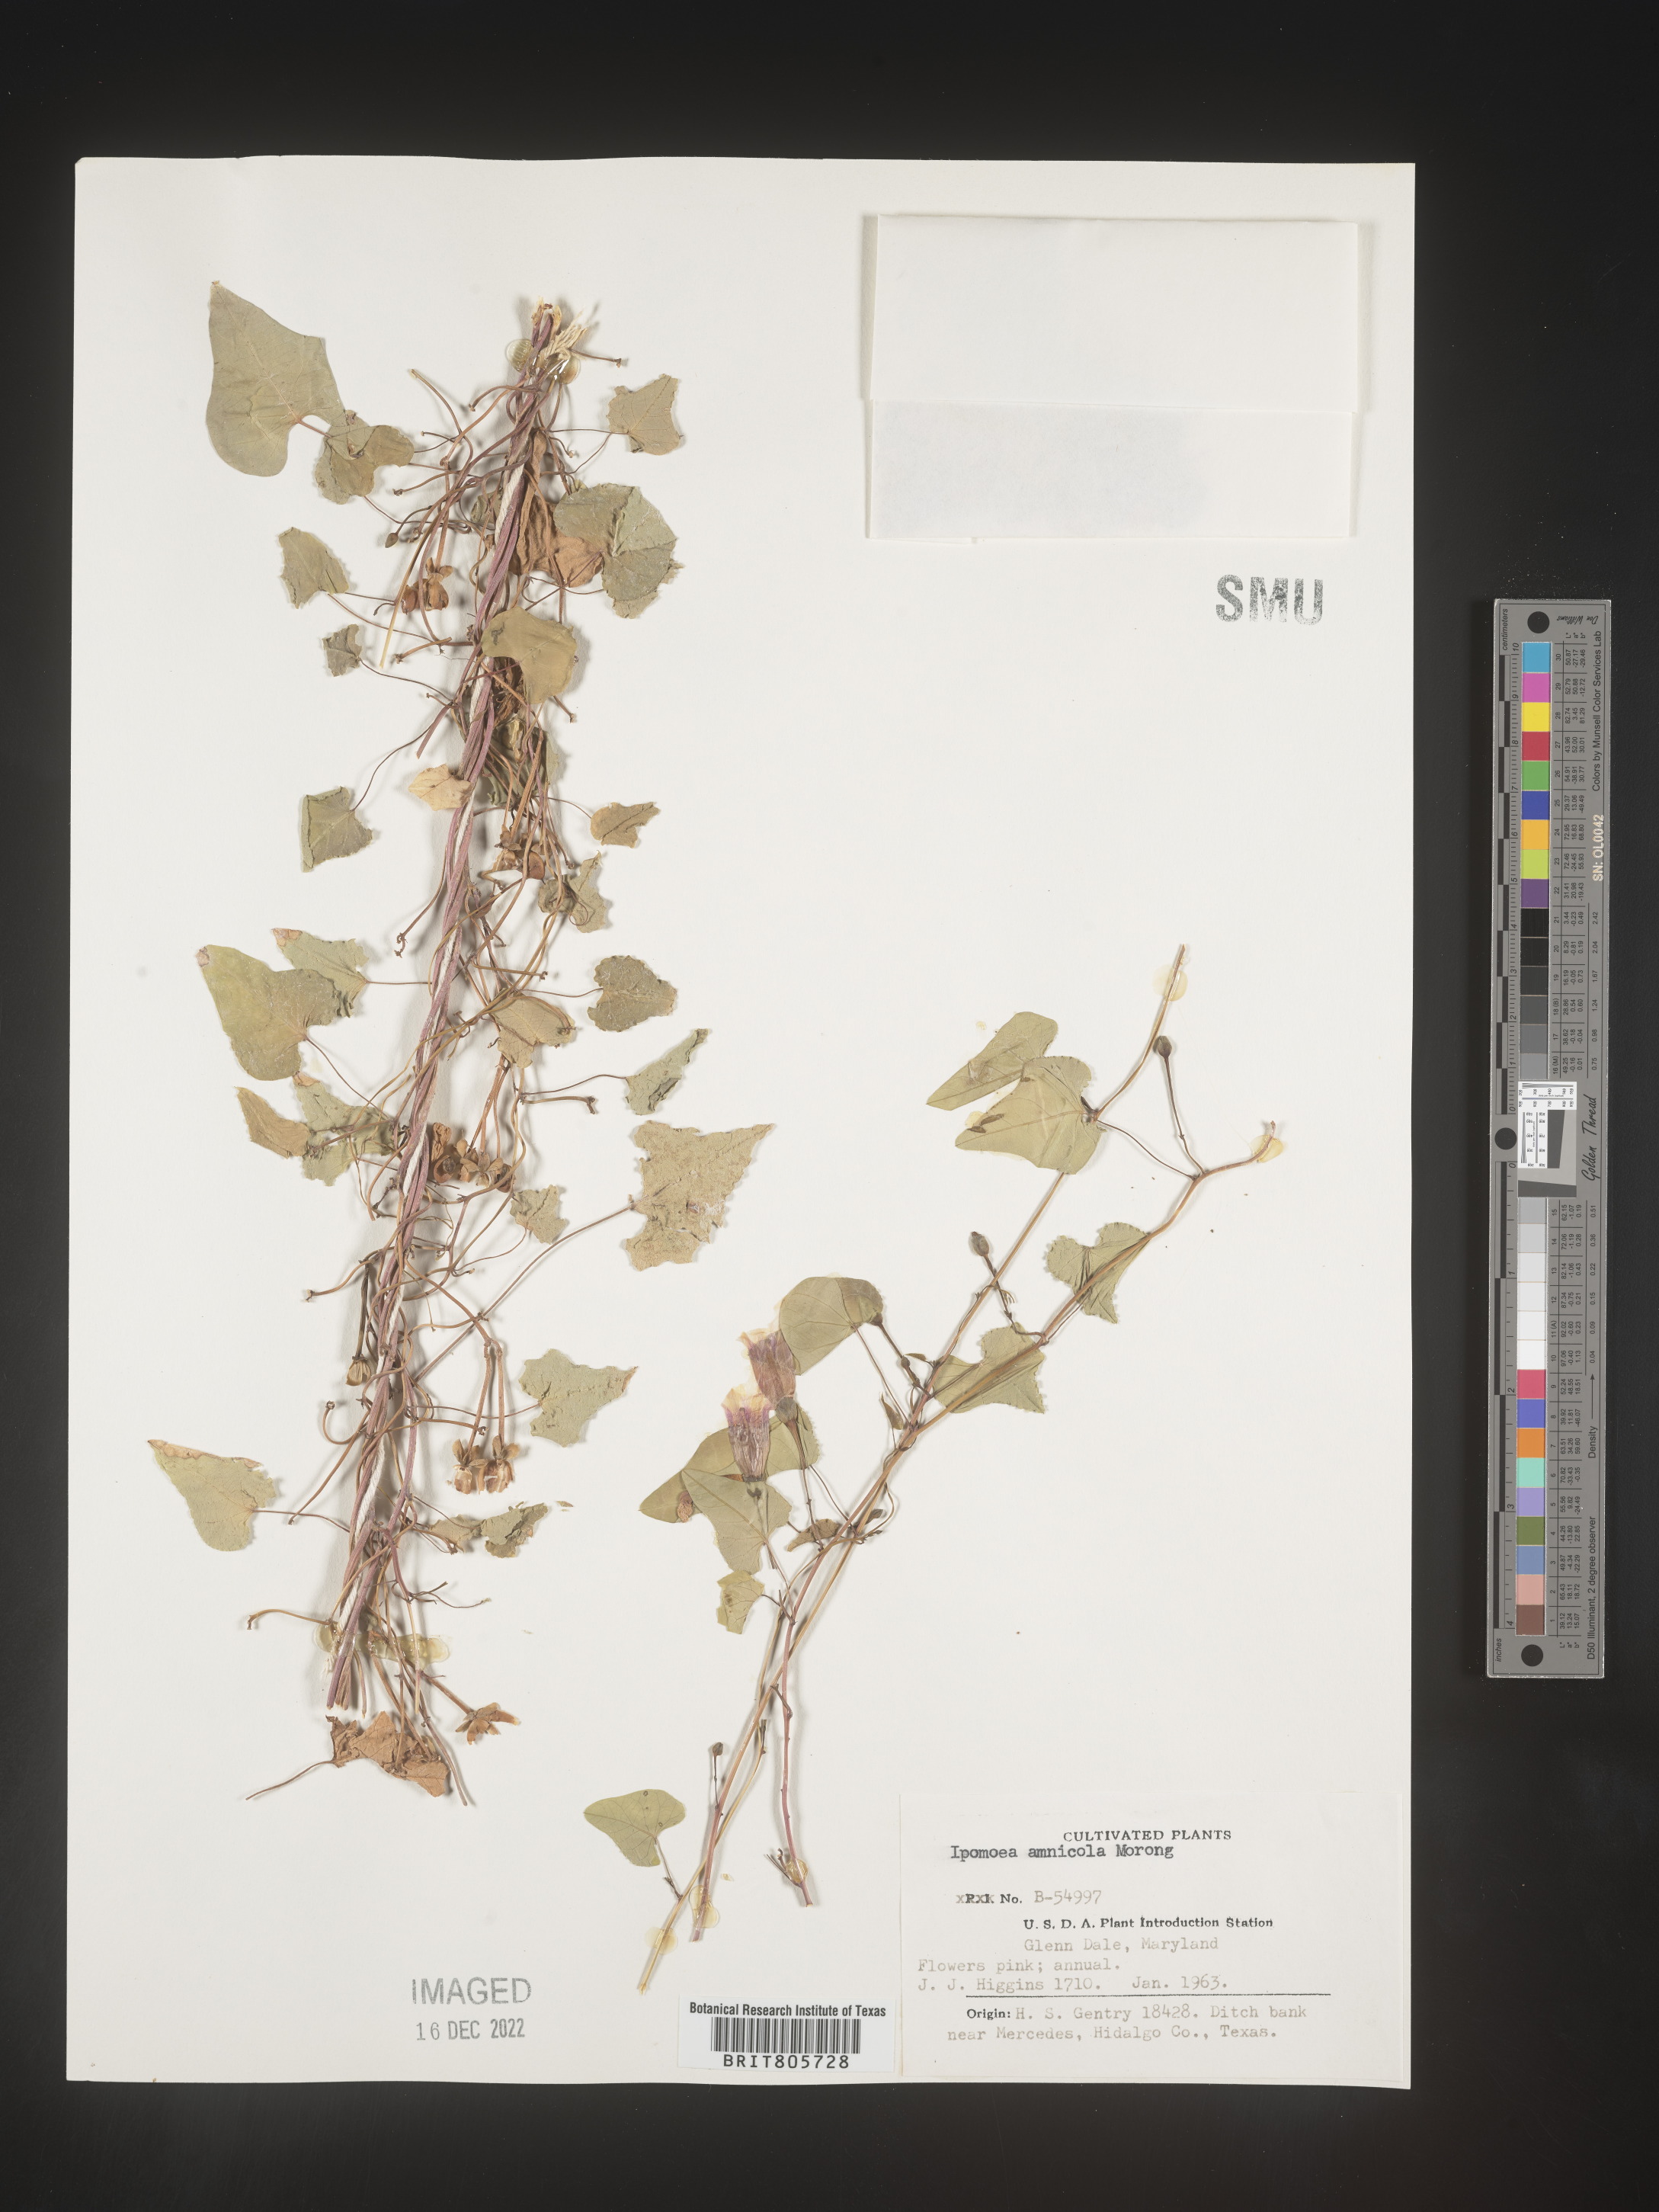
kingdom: Plantae
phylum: Tracheophyta
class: Magnoliopsida
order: Solanales
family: Convolvulaceae
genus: Ipomoea
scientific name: Ipomoea
